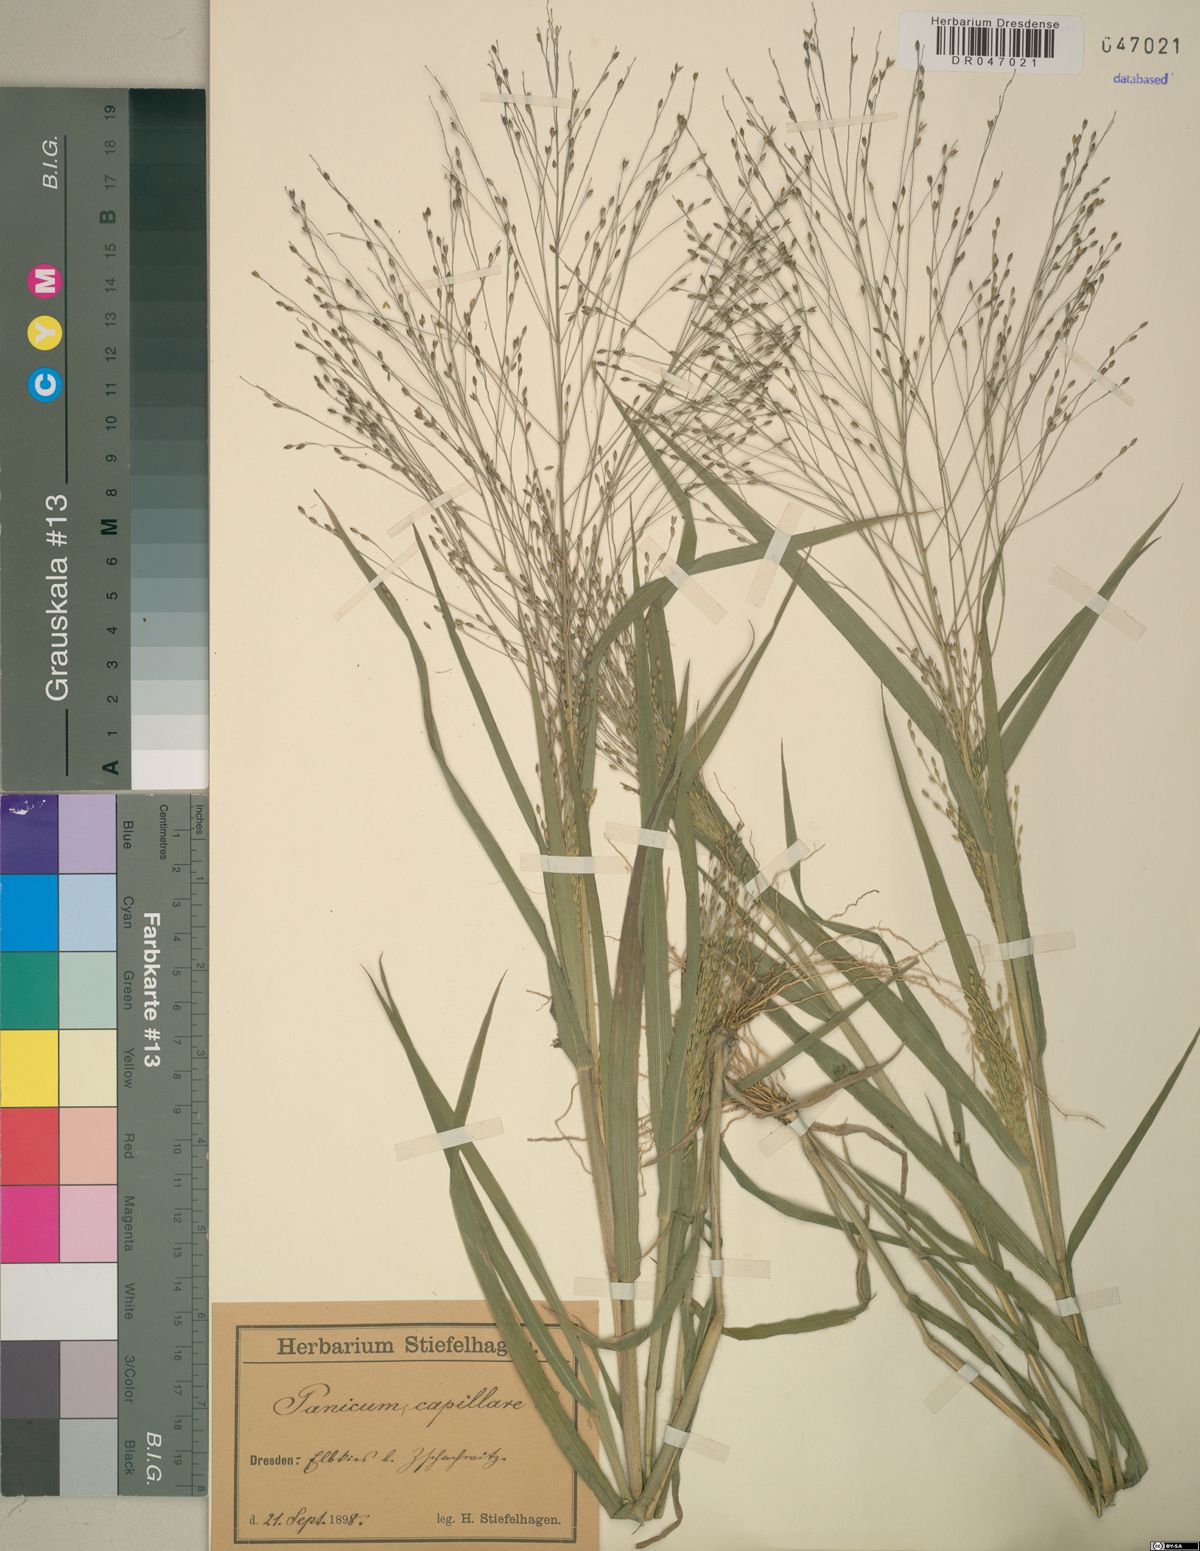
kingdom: Plantae
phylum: Tracheophyta
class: Liliopsida
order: Poales
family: Poaceae
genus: Panicum
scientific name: Panicum capillare
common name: Witch-grass
